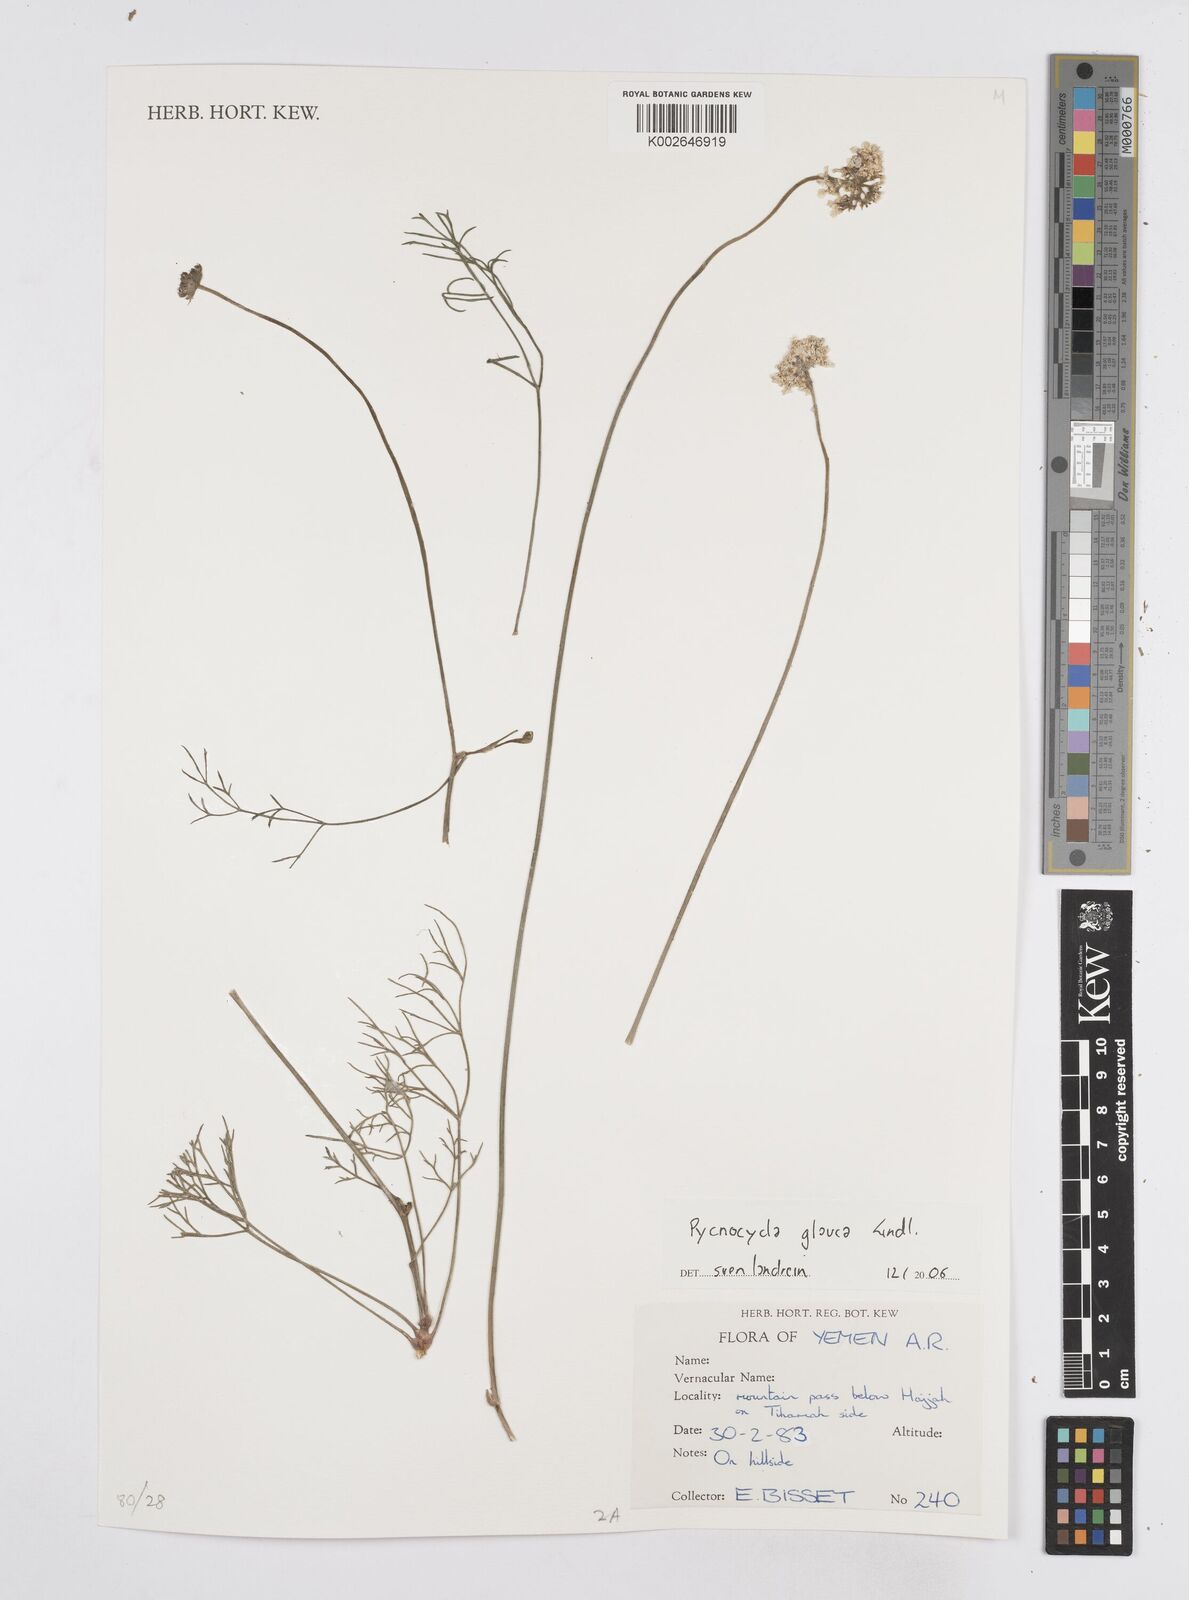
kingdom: Plantae
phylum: Tracheophyta
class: Magnoliopsida
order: Apiales
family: Apiaceae
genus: Pycnocycla
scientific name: Pycnocycla glauca
